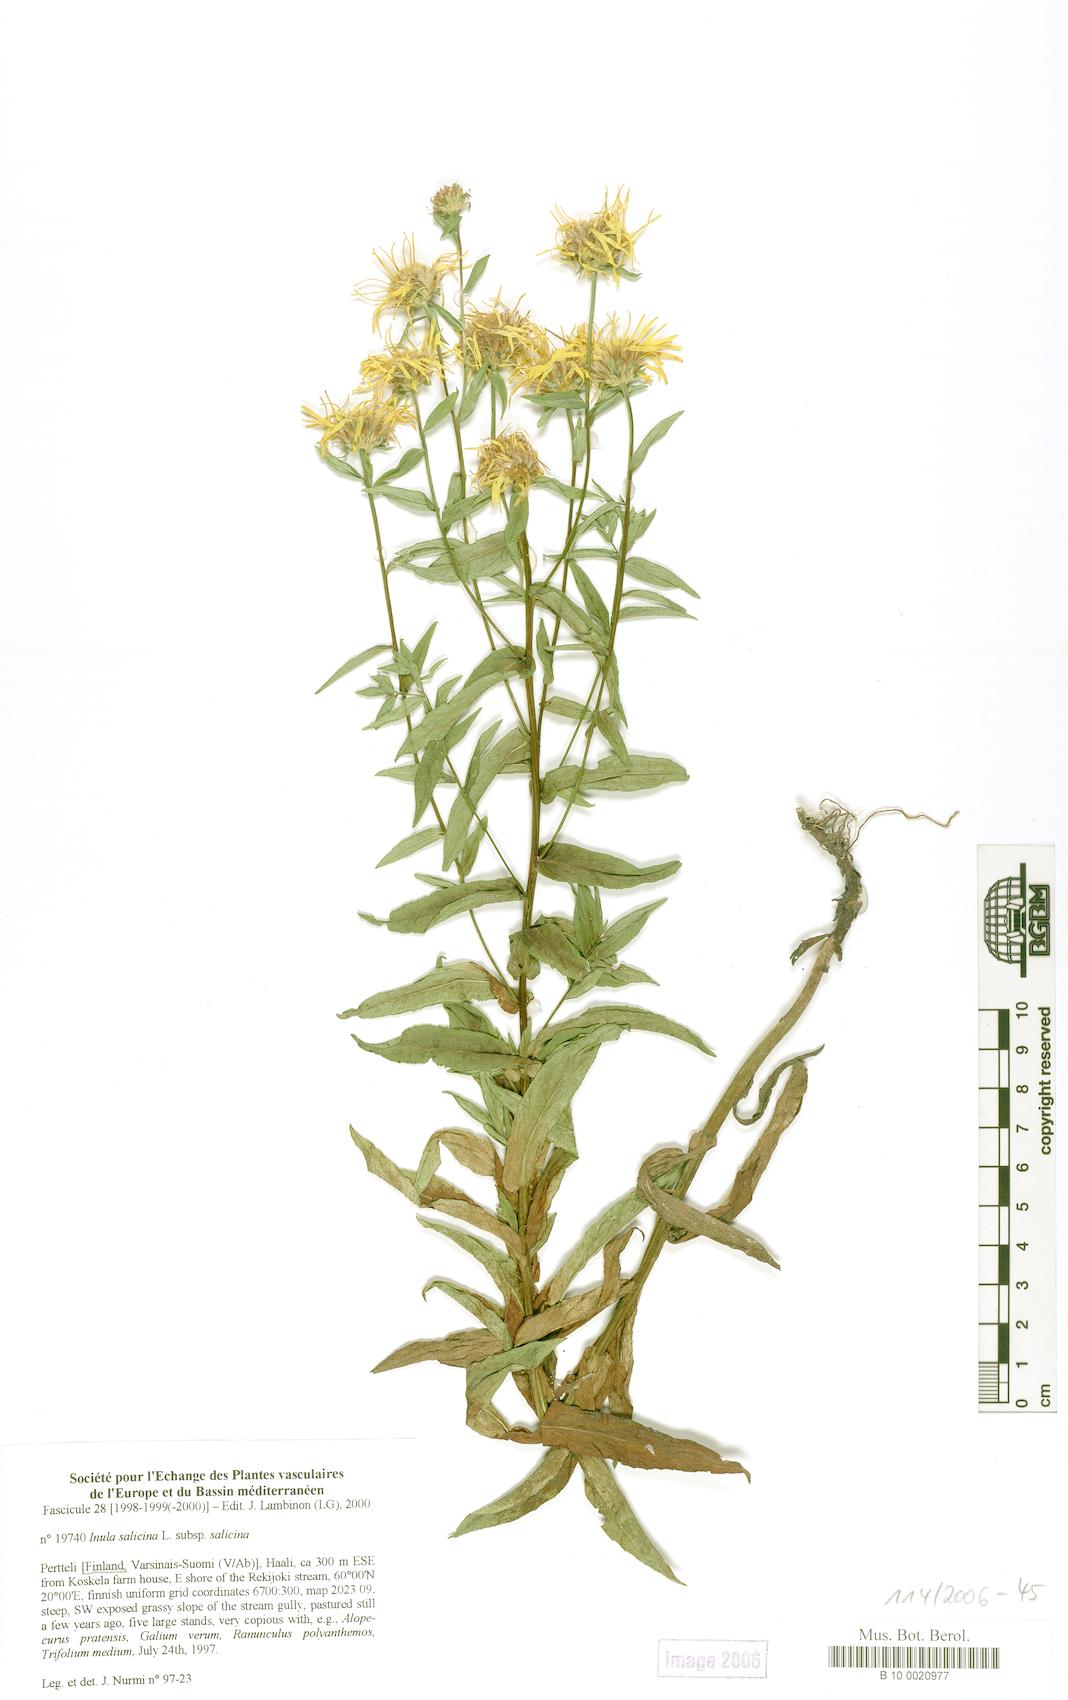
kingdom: Plantae
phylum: Tracheophyta
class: Magnoliopsida
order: Asterales
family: Asteraceae
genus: Pentanema
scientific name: Pentanema salicinum
